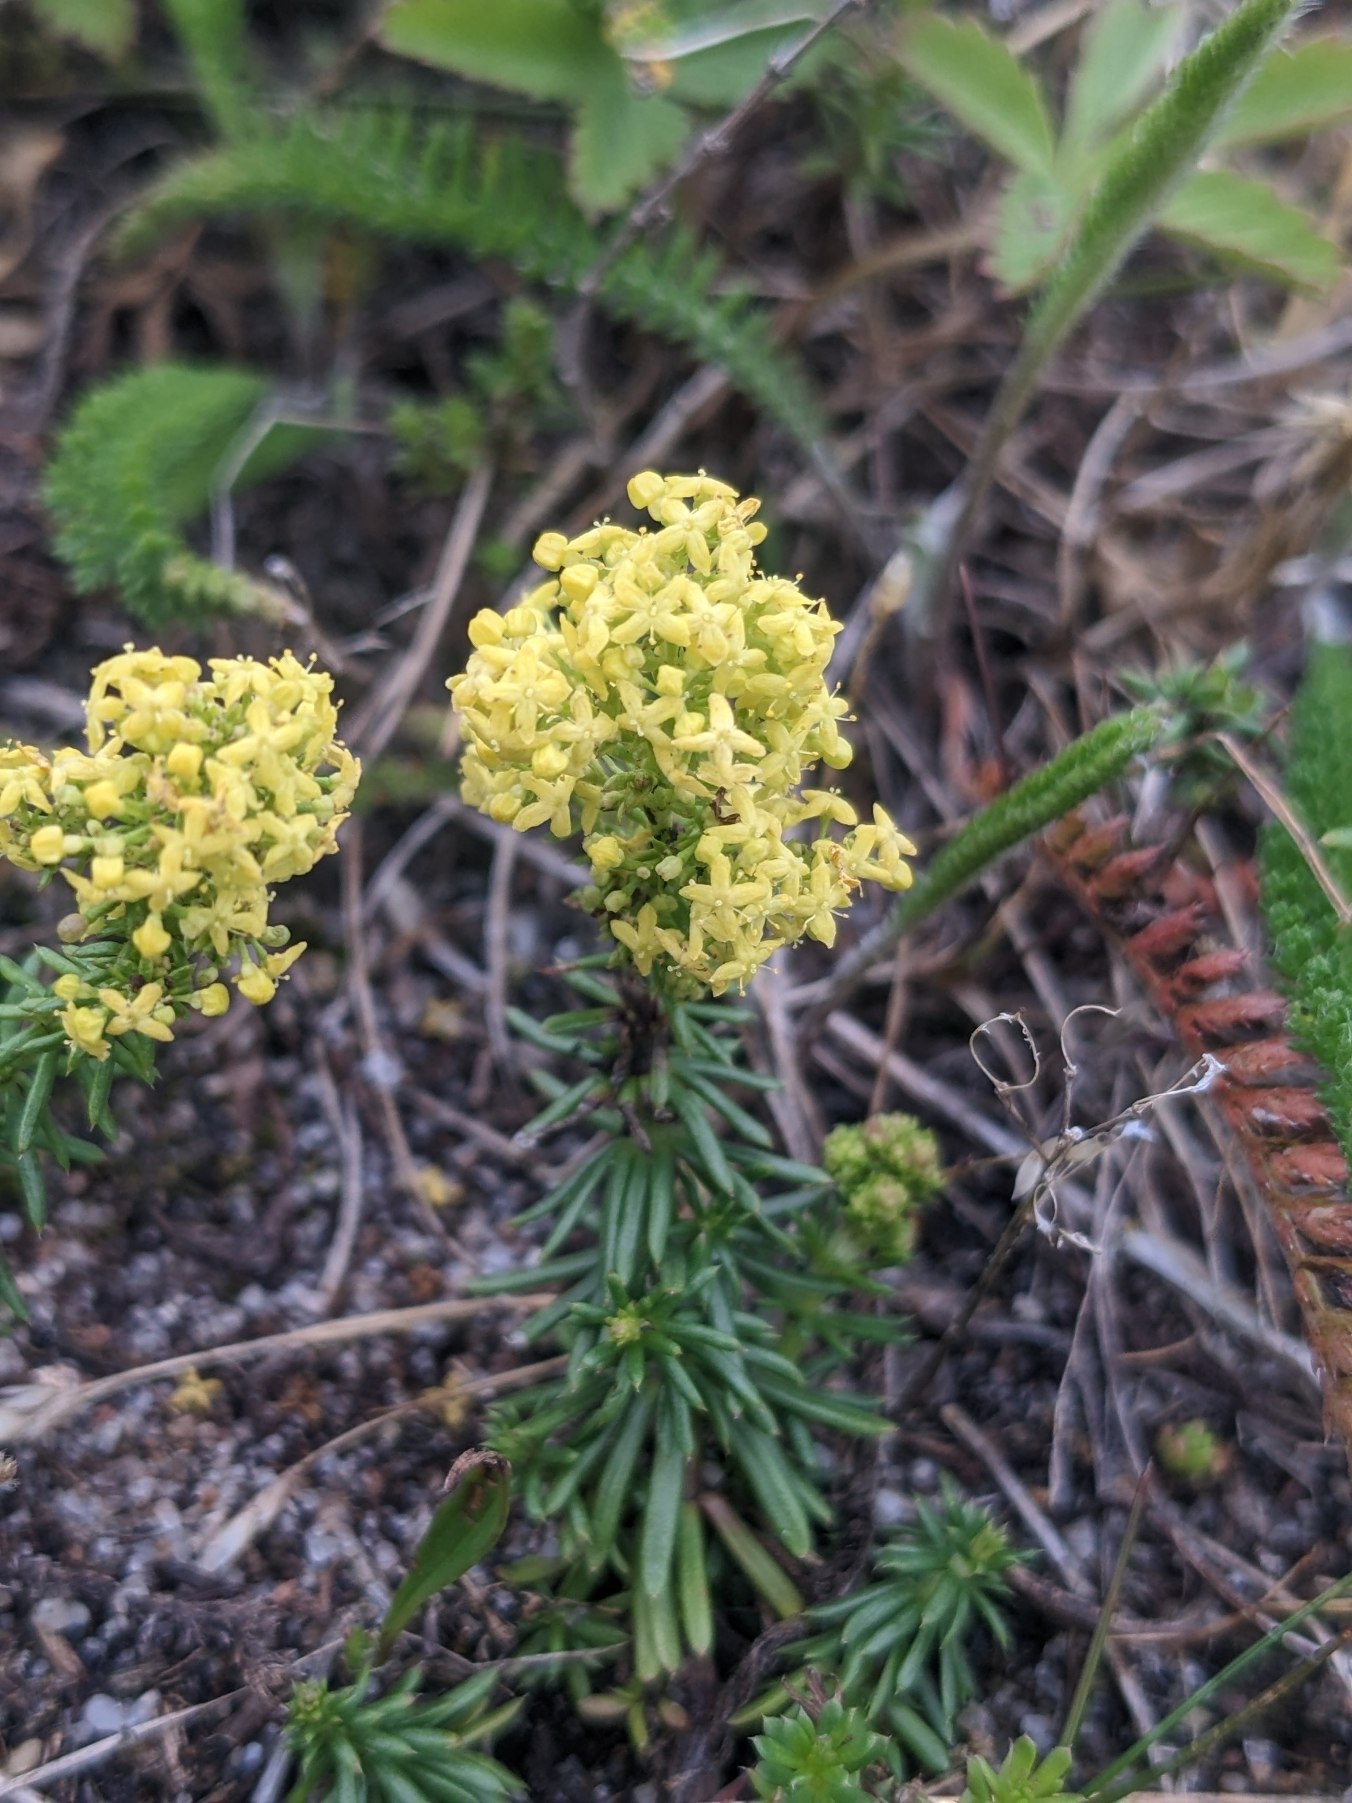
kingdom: Plantae
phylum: Tracheophyta
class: Magnoliopsida
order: Gentianales
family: Rubiaceae
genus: Galium
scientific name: Galium verum
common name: Gul snerre
